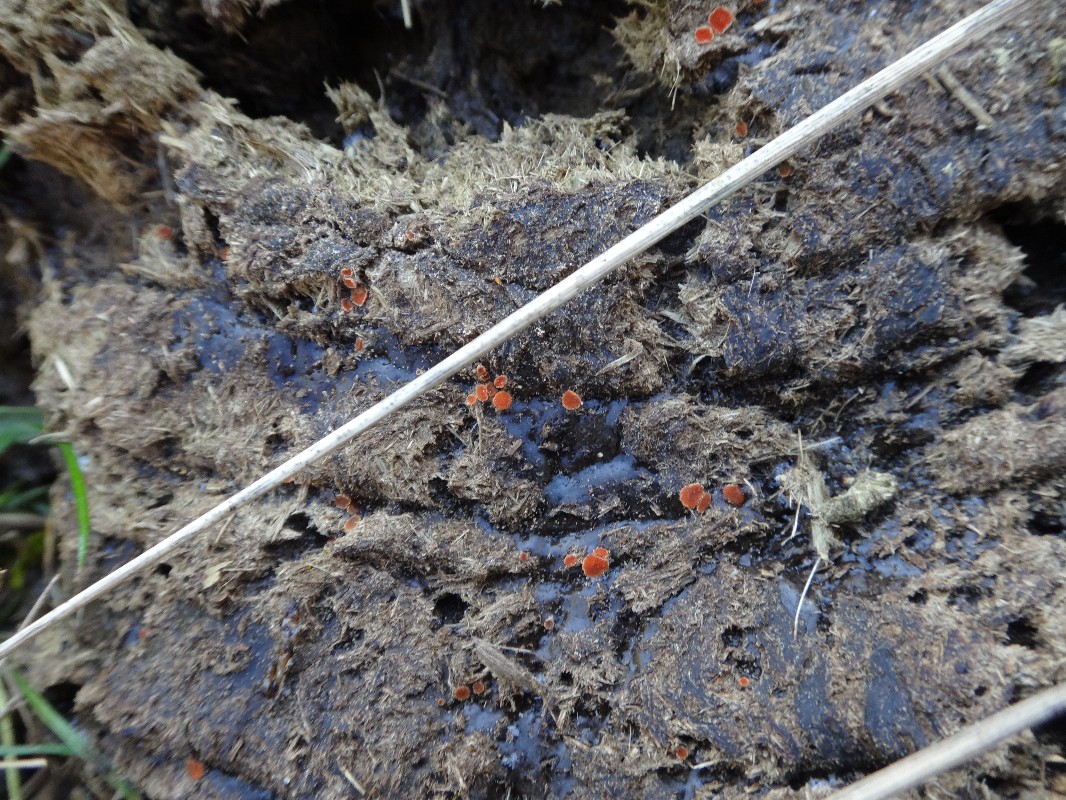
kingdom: Fungi
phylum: Ascomycota
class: Pezizomycetes
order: Pezizales
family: Pyronemataceae
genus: Cheilymenia
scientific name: Cheilymenia granulata
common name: møgbæger
